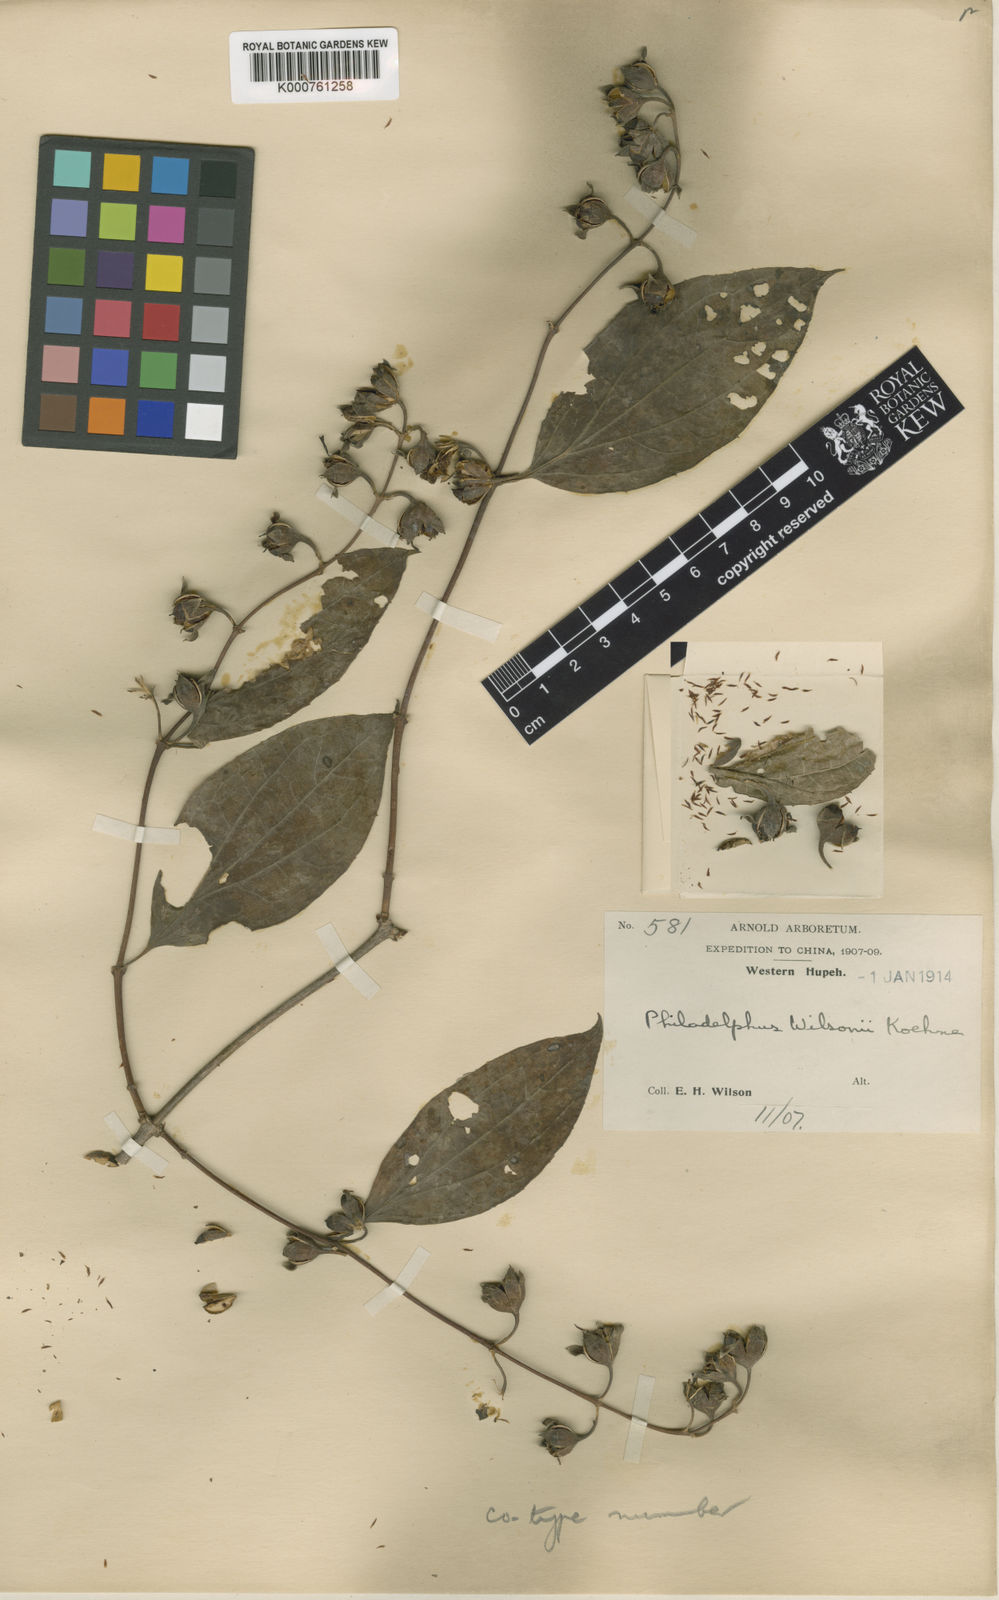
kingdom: Plantae
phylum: Tracheophyta
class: Magnoliopsida
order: Cornales
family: Hydrangeaceae
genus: Philadelphus
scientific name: Philadelphus subcanus
